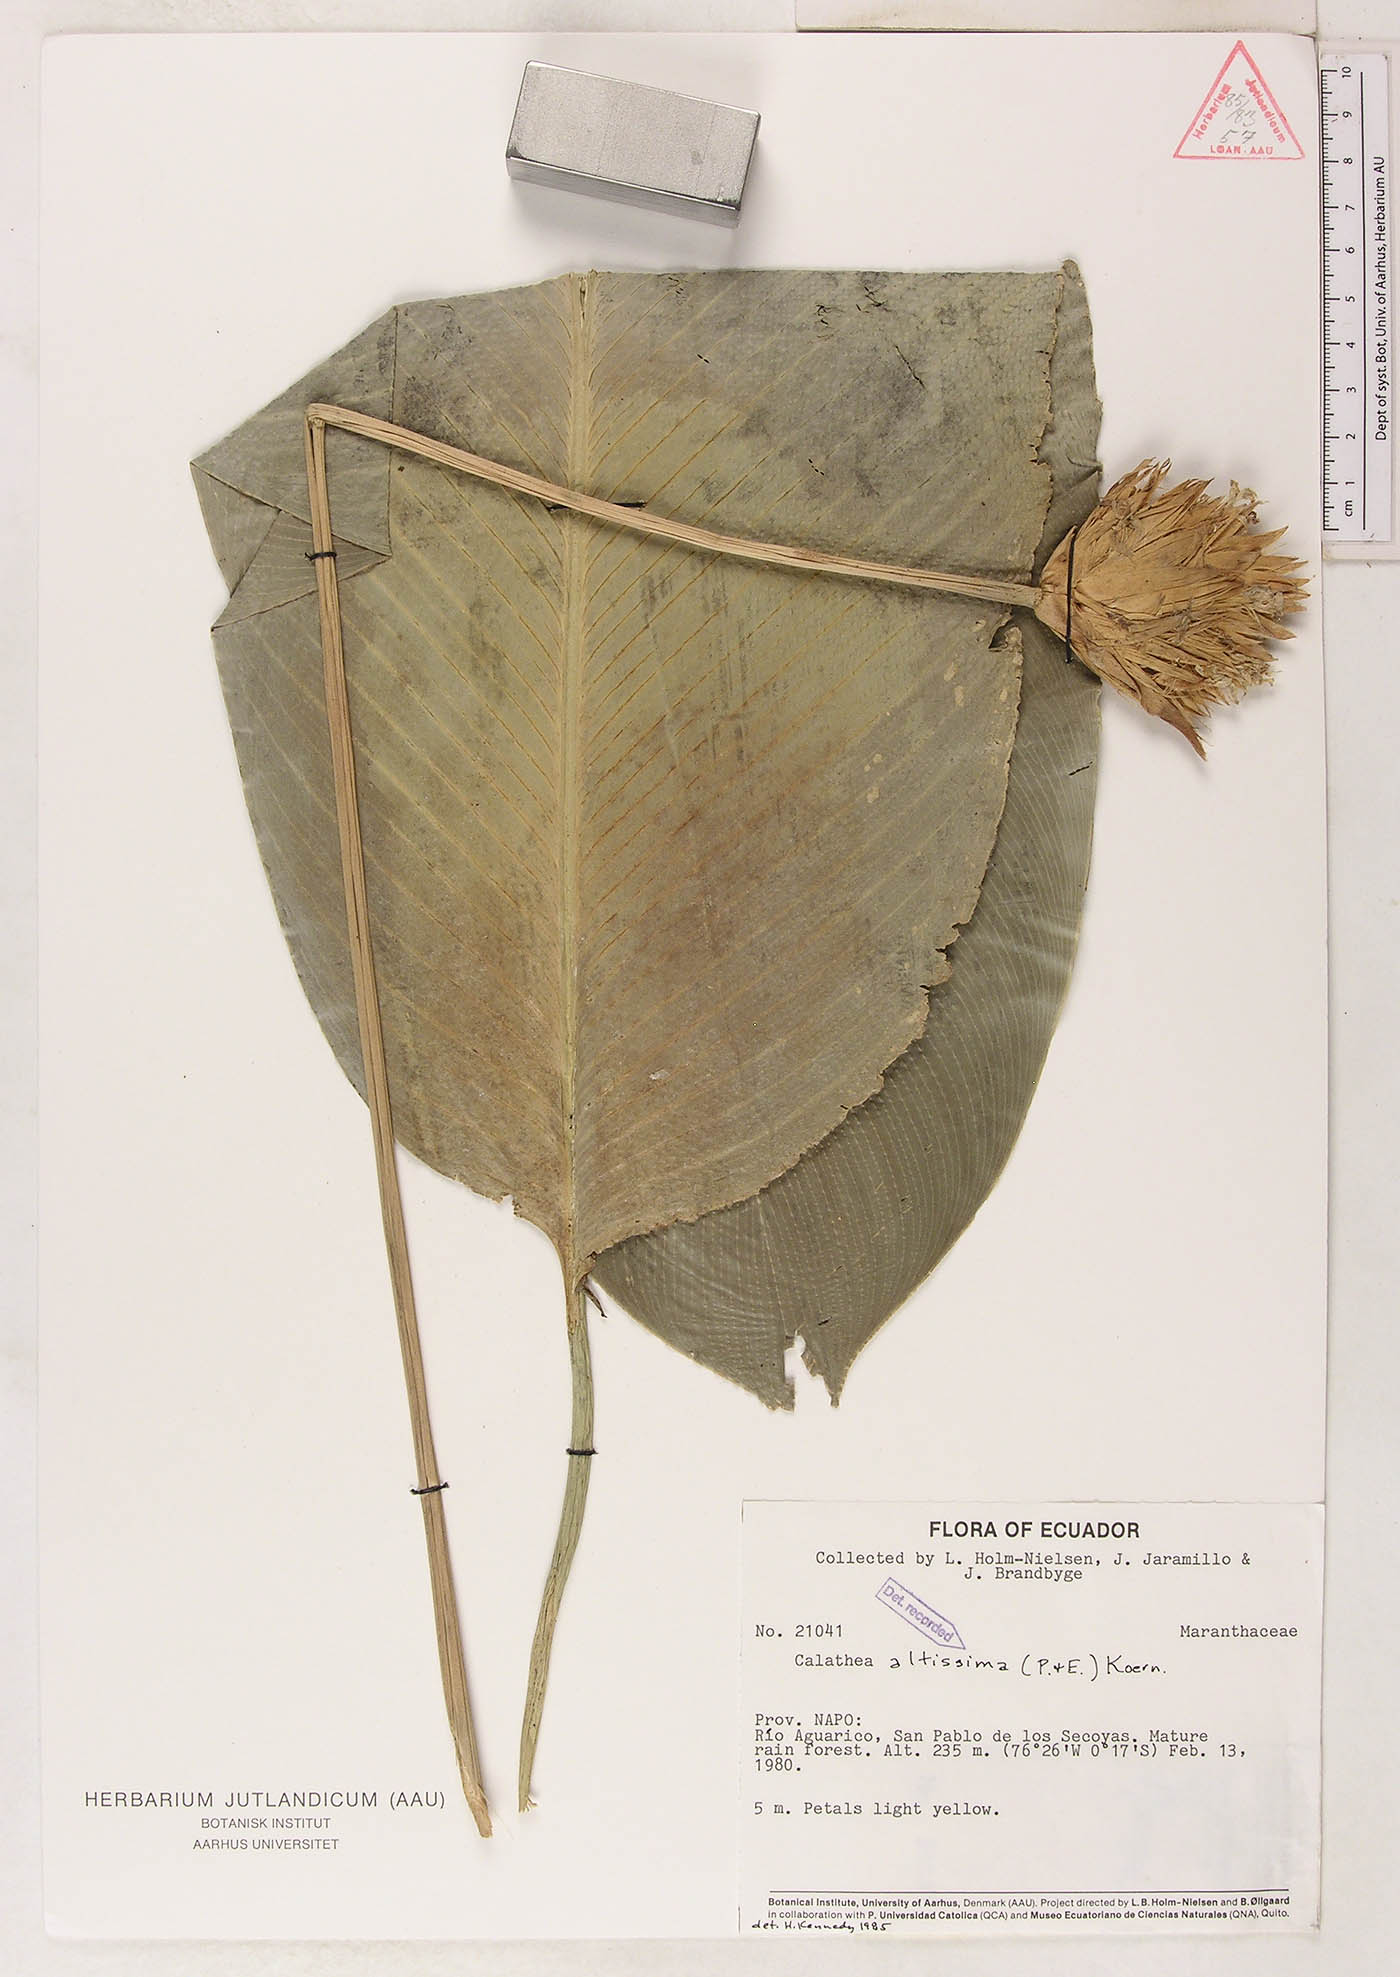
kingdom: Plantae
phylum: Tracheophyta
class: Liliopsida
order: Zingiberales
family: Marantaceae
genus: Goeppertia
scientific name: Goeppertia altissima
